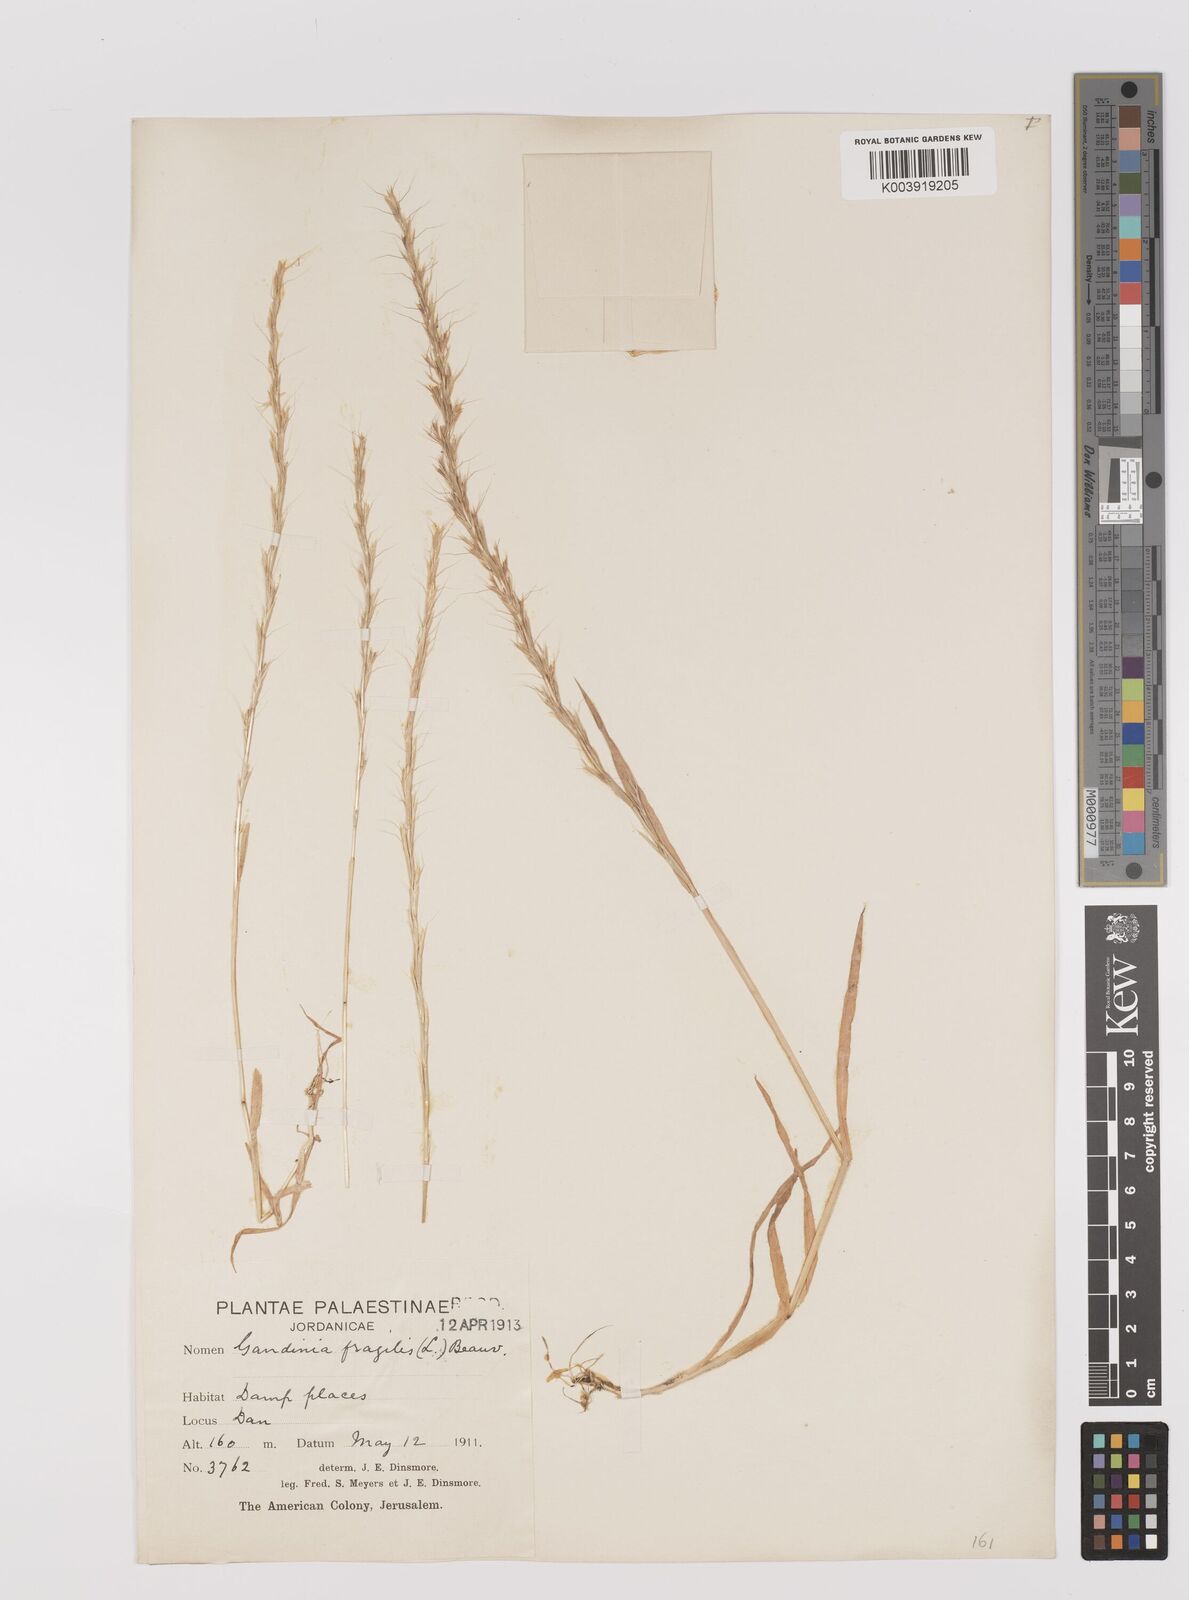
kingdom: Plantae
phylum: Tracheophyta
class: Liliopsida
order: Poales
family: Poaceae
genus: Gaudinia
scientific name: Gaudinia fragilis
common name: French oat-grass
